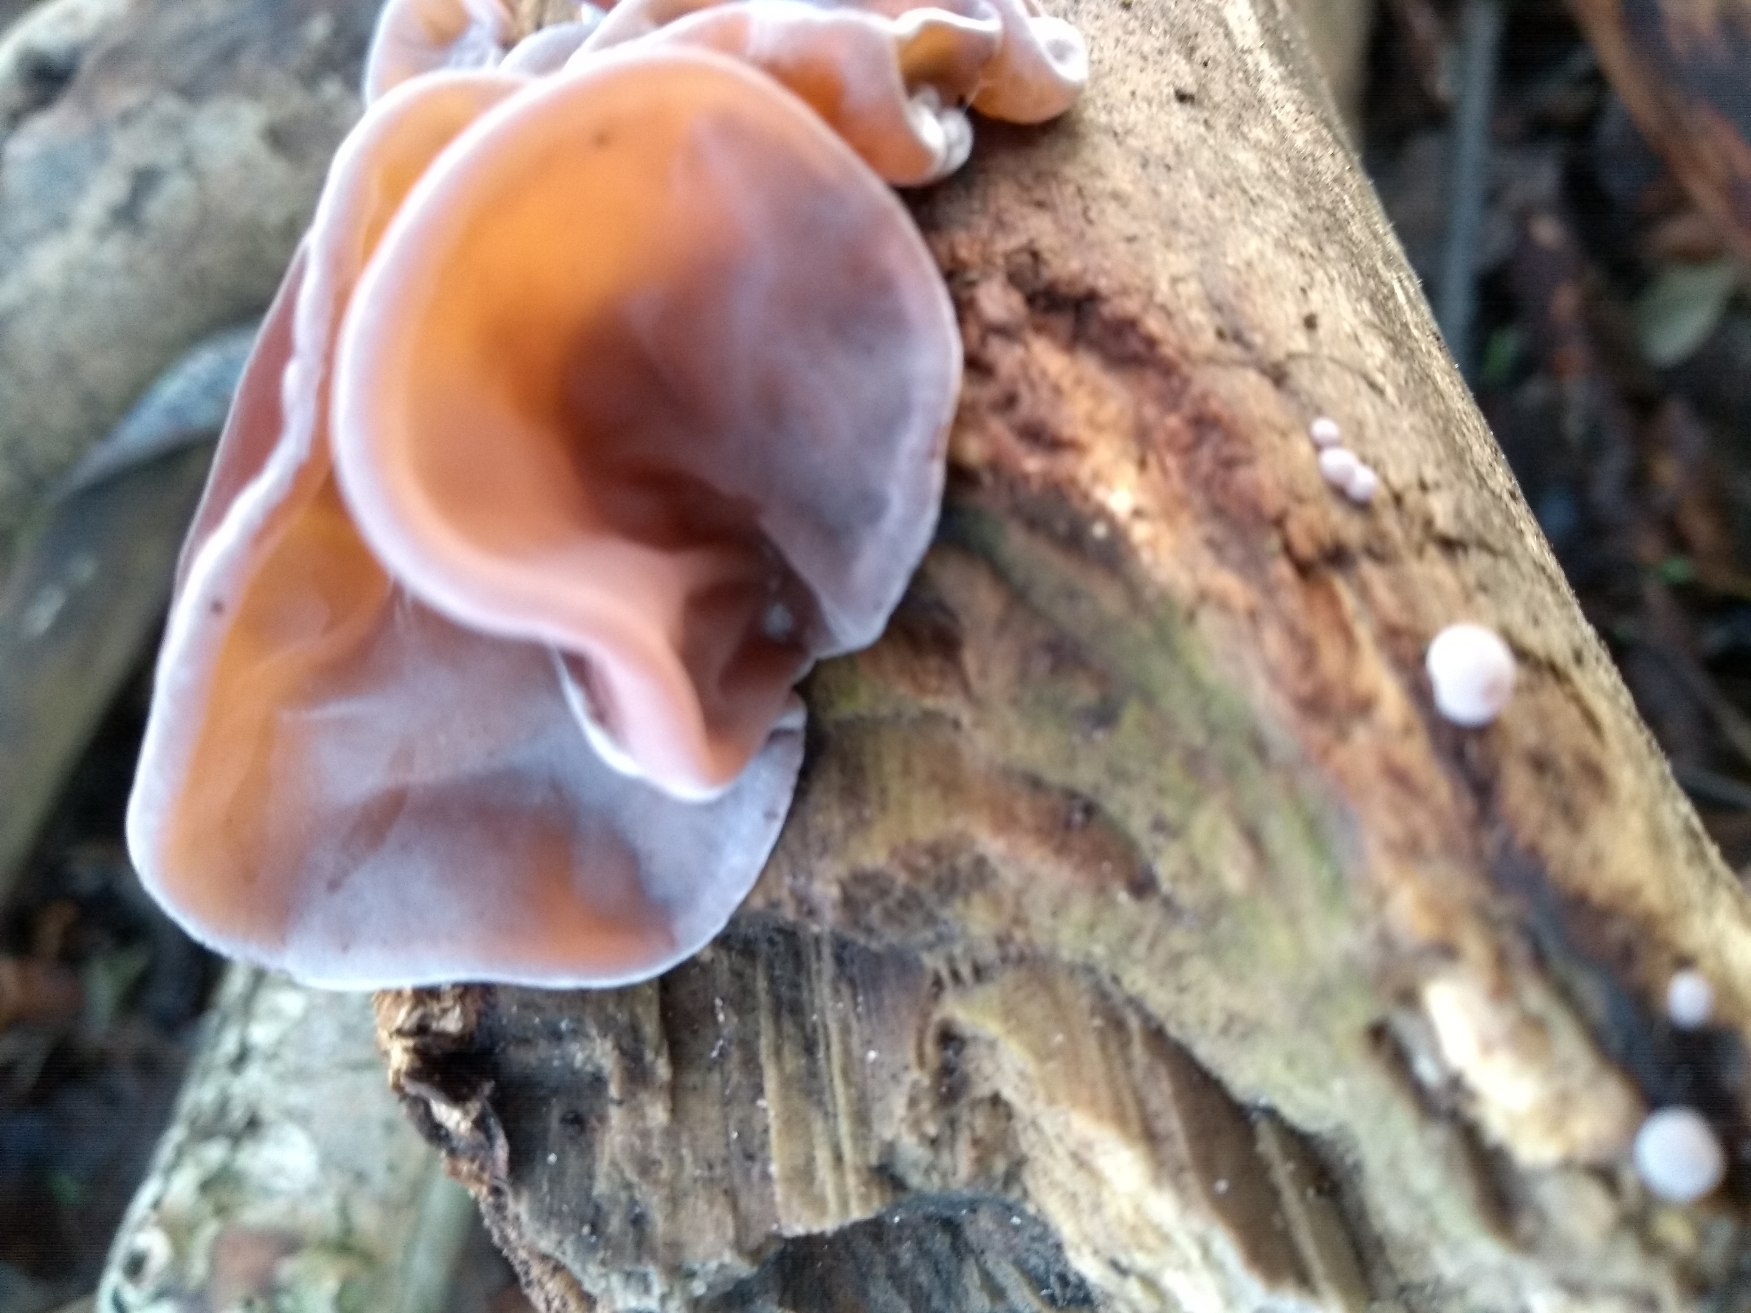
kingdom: Fungi
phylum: Basidiomycota
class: Agaricomycetes
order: Auriculariales
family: Auriculariaceae
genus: Auricularia
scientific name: Auricularia auricula-judae
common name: Almindelig judasøre
